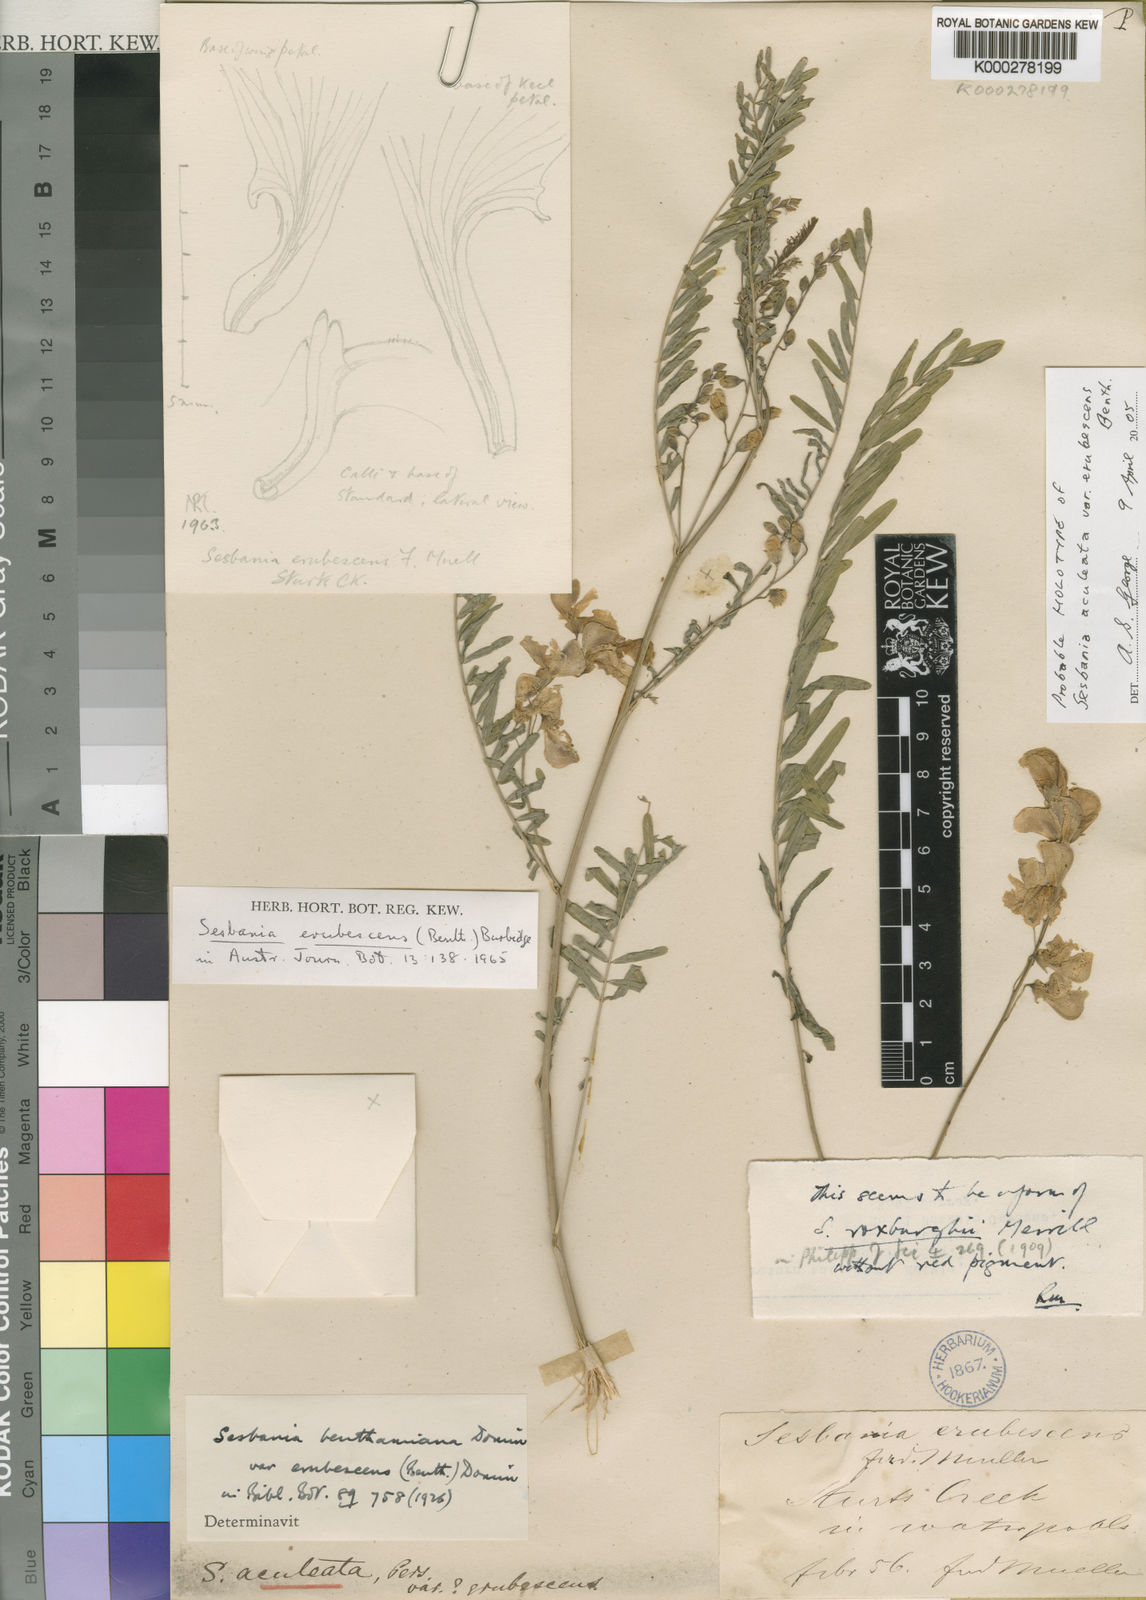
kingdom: Plantae
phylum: Tracheophyta
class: Magnoliopsida
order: Fabales
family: Fabaceae
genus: Sesbania
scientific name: Sesbania erubescens
